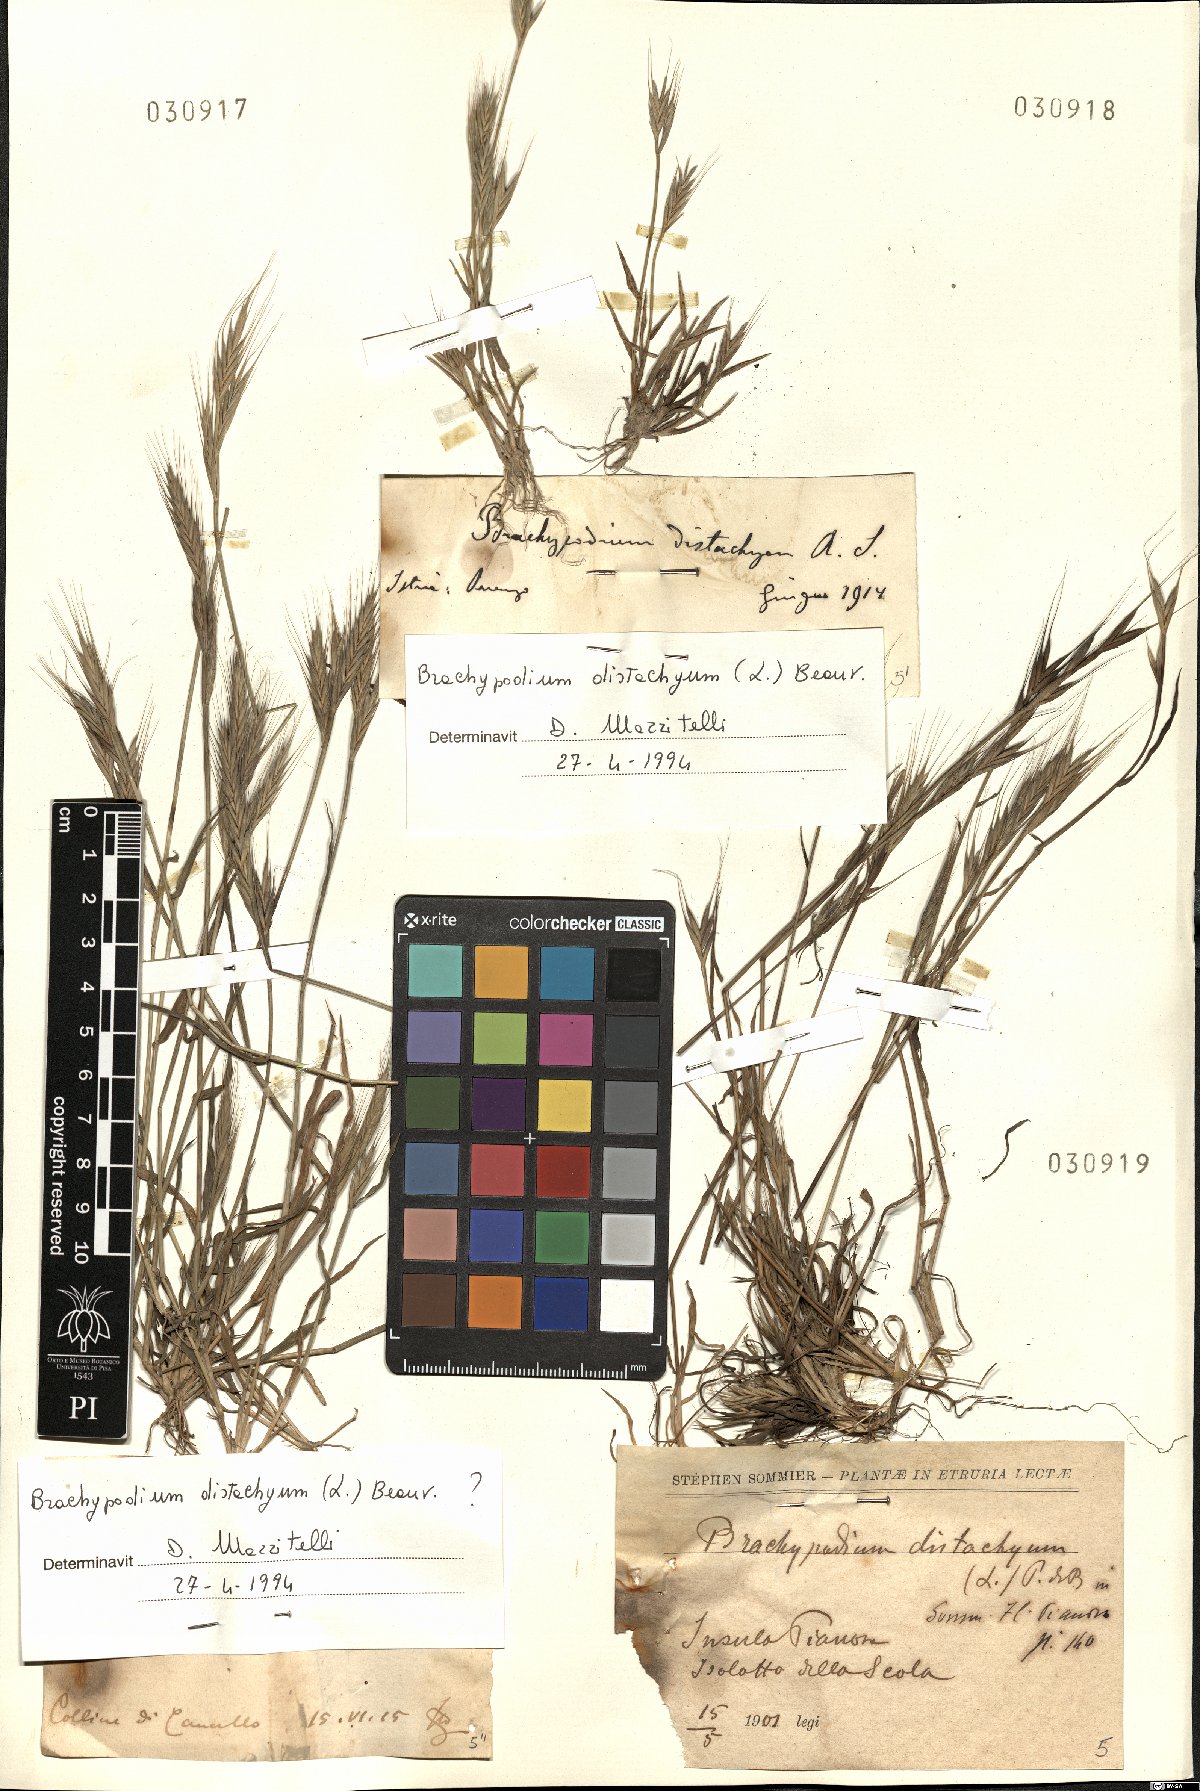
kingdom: Plantae
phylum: Tracheophyta
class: Liliopsida
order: Poales
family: Poaceae
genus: Brachypodium
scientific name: Brachypodium distachyon
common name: Stiff brome
